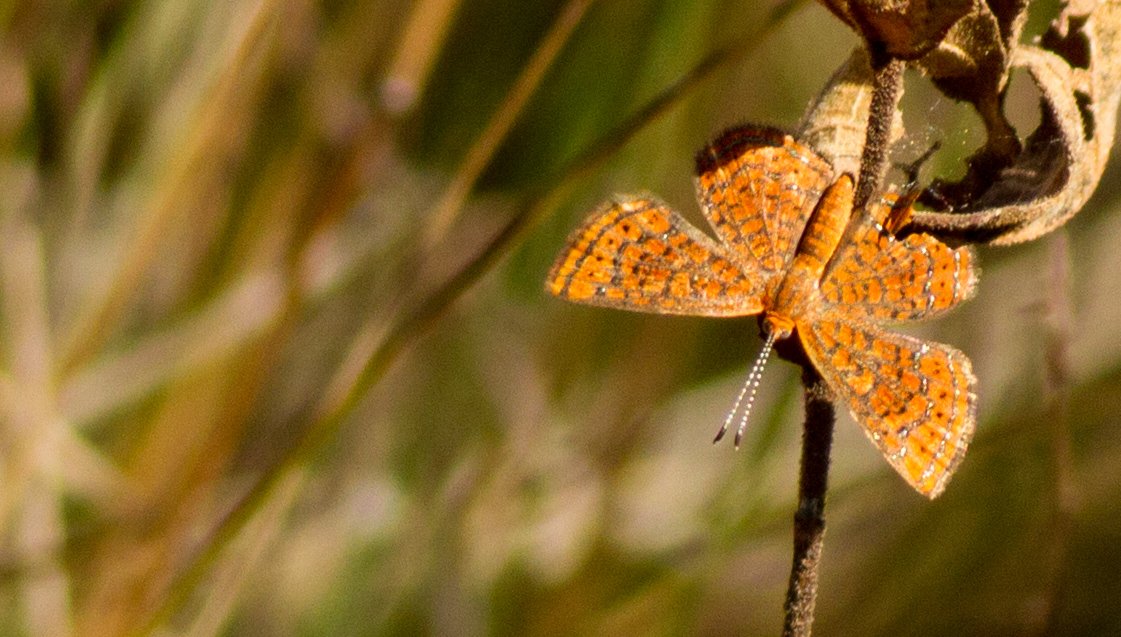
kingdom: Animalia
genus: Calephelis
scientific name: Calephelis virginiensis
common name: Little Metalmark
